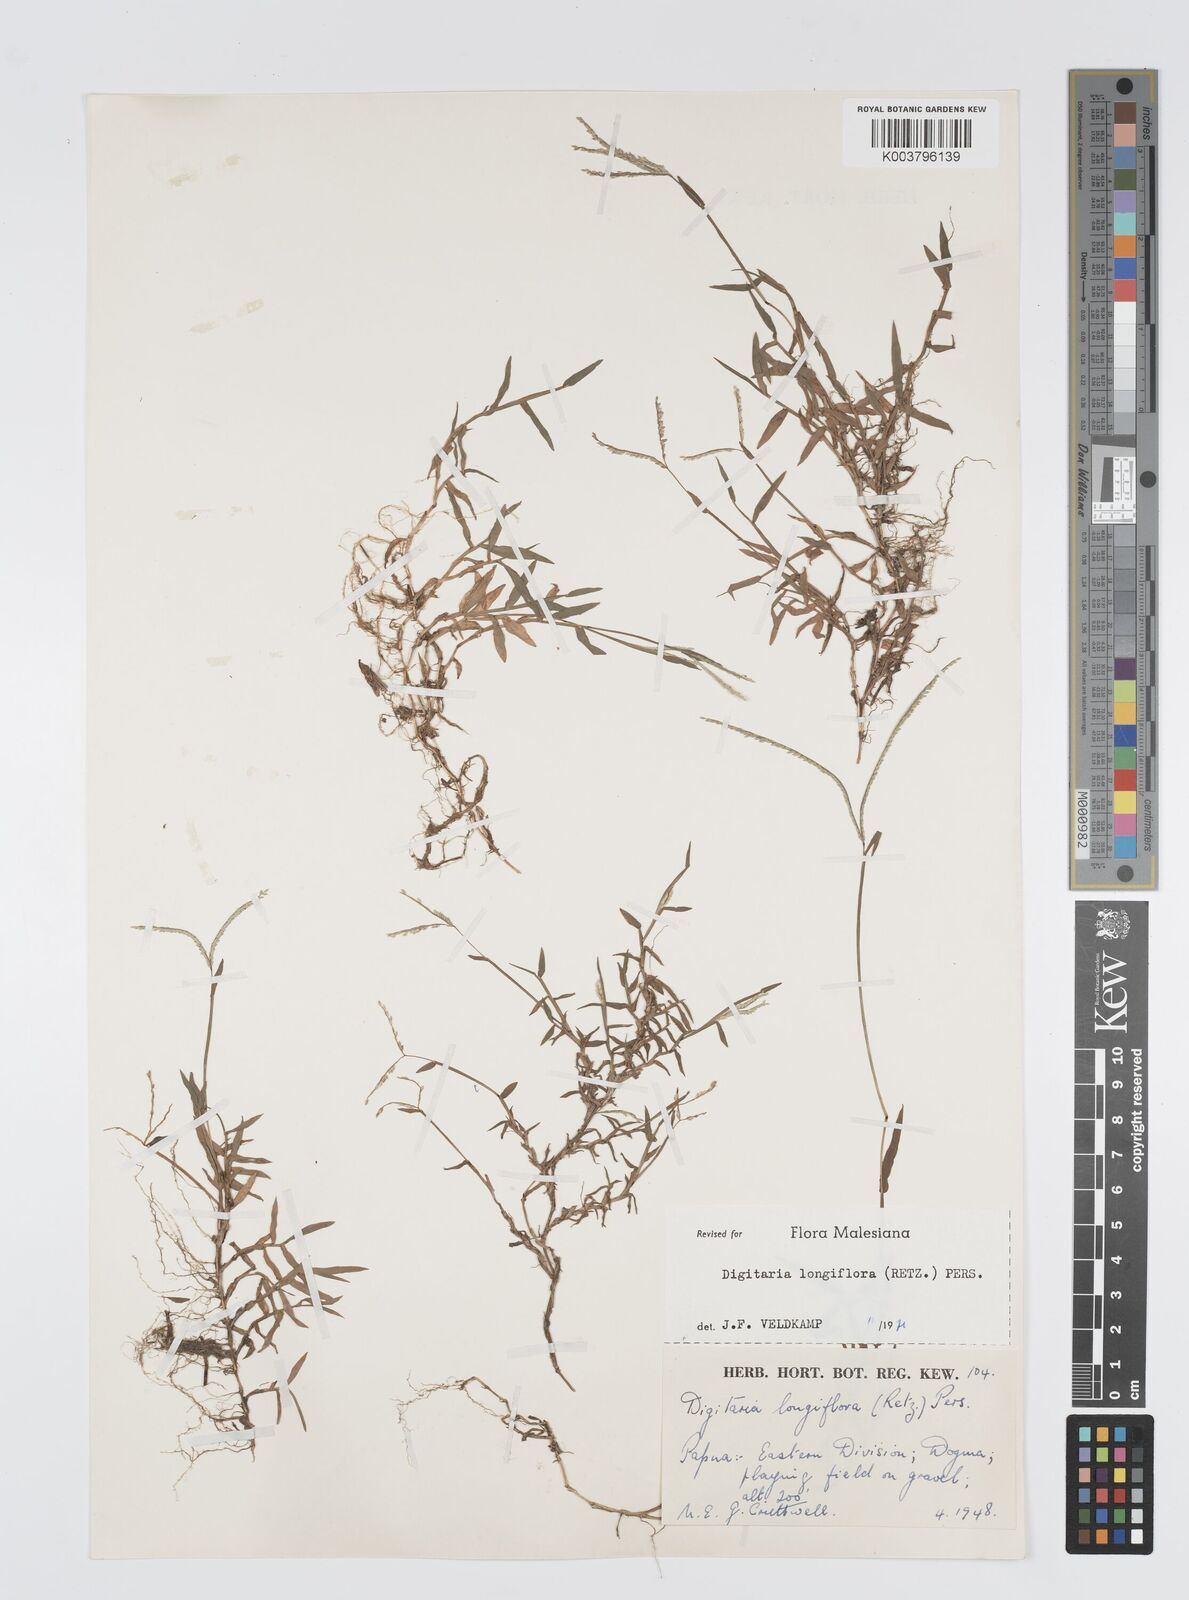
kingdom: Plantae
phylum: Tracheophyta
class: Liliopsida
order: Poales
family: Poaceae
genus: Digitaria
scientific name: Digitaria longiflora
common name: Wire crabgrass
